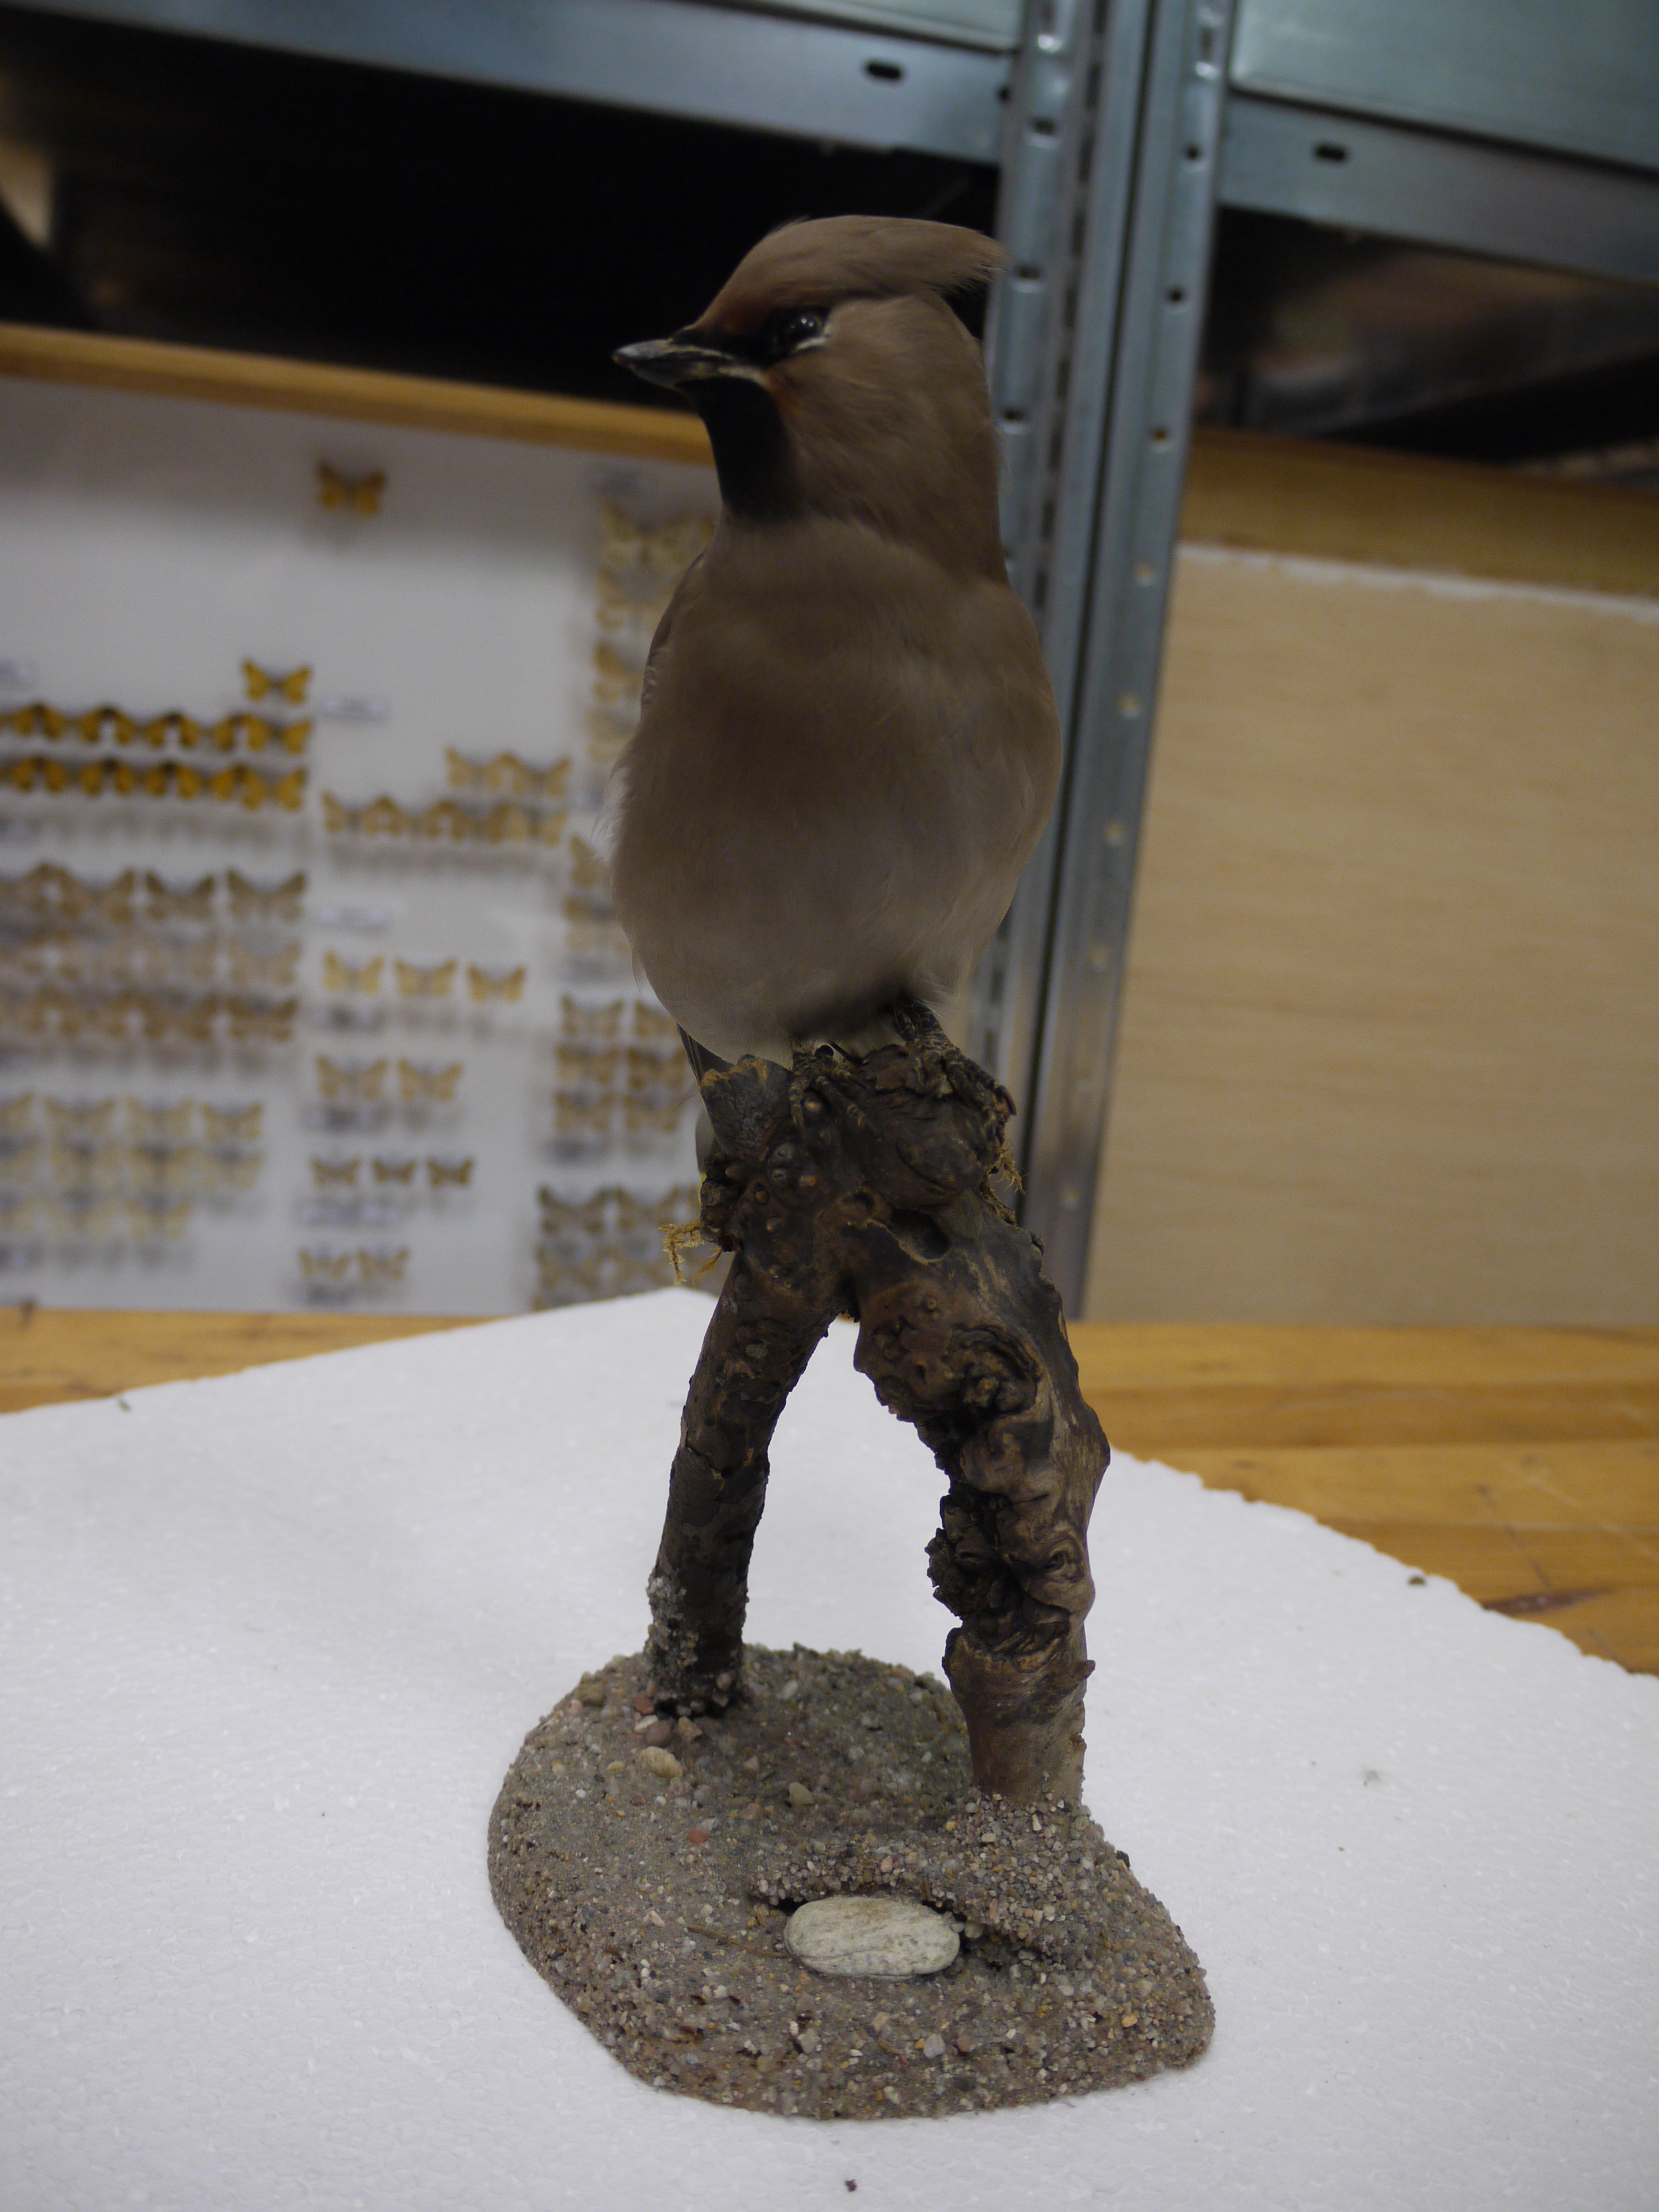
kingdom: Animalia
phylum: Chordata
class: Aves
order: Passeriformes
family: Bombycillidae
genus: Bombycilla
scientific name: Bombycilla garrulus
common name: Bohemian waxwing
